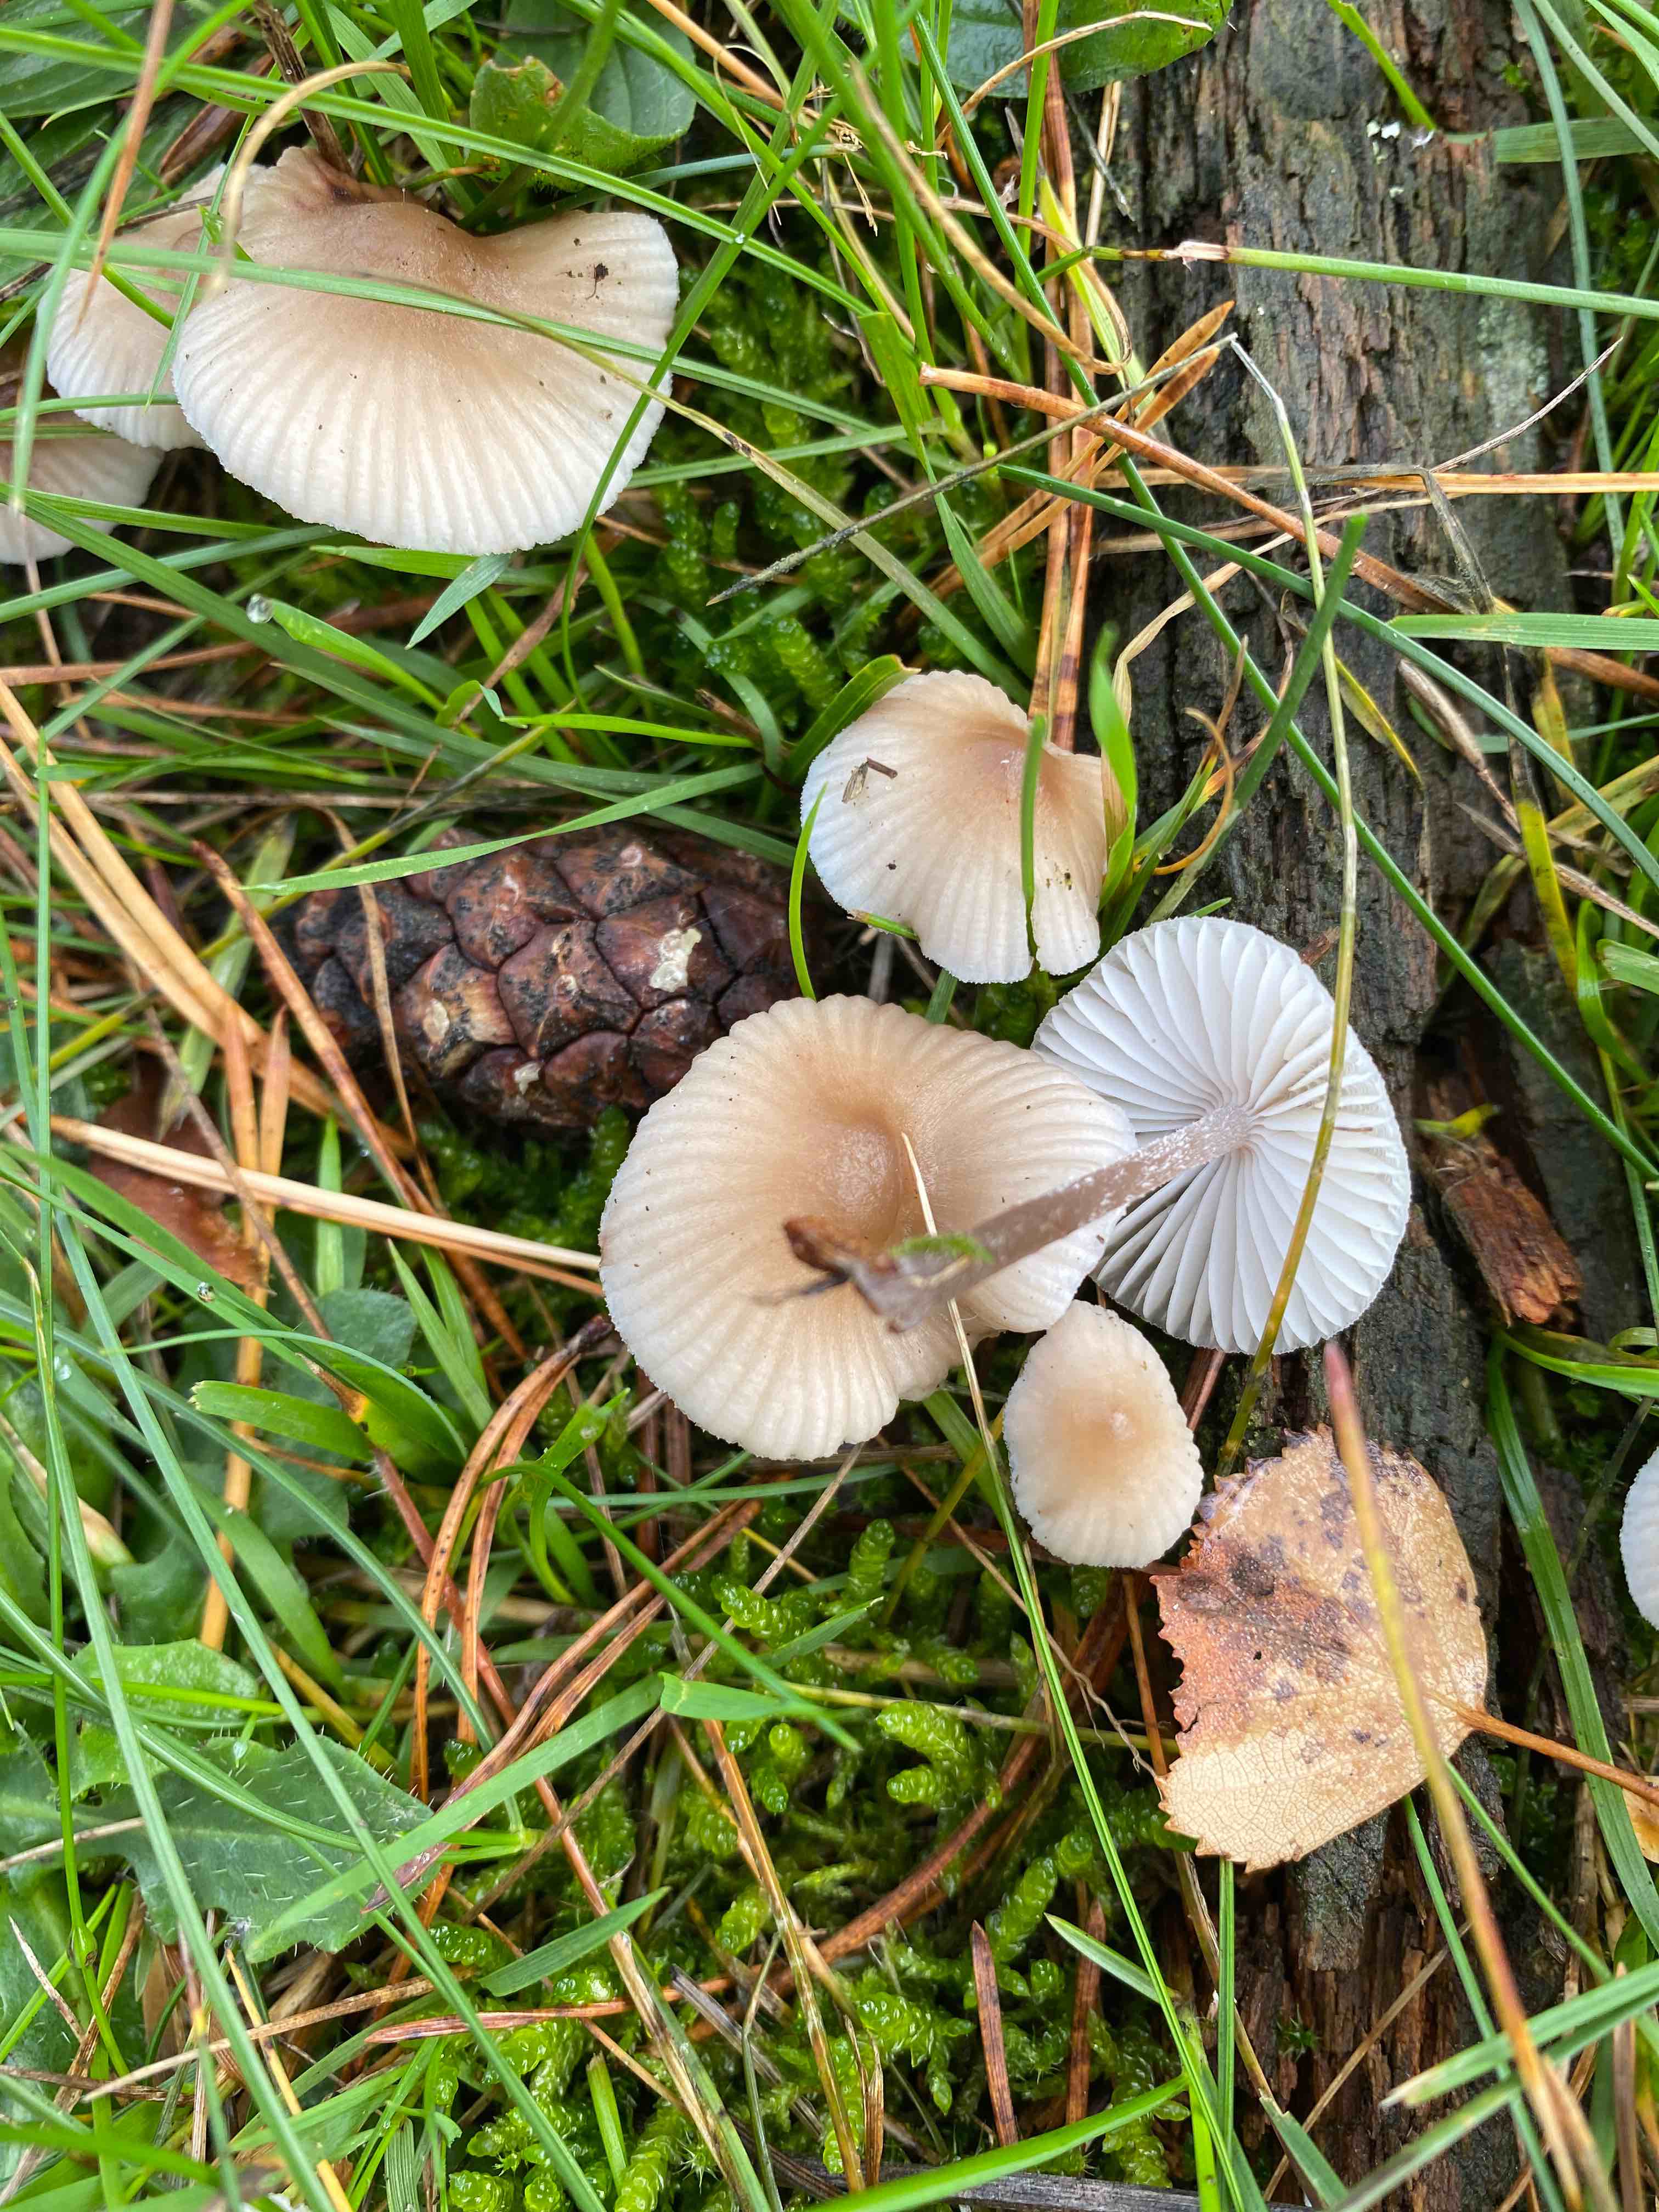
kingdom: Fungi
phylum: Basidiomycota
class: Agaricomycetes
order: Agaricales
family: Mycenaceae
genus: Mycena
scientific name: Mycena zephirus
